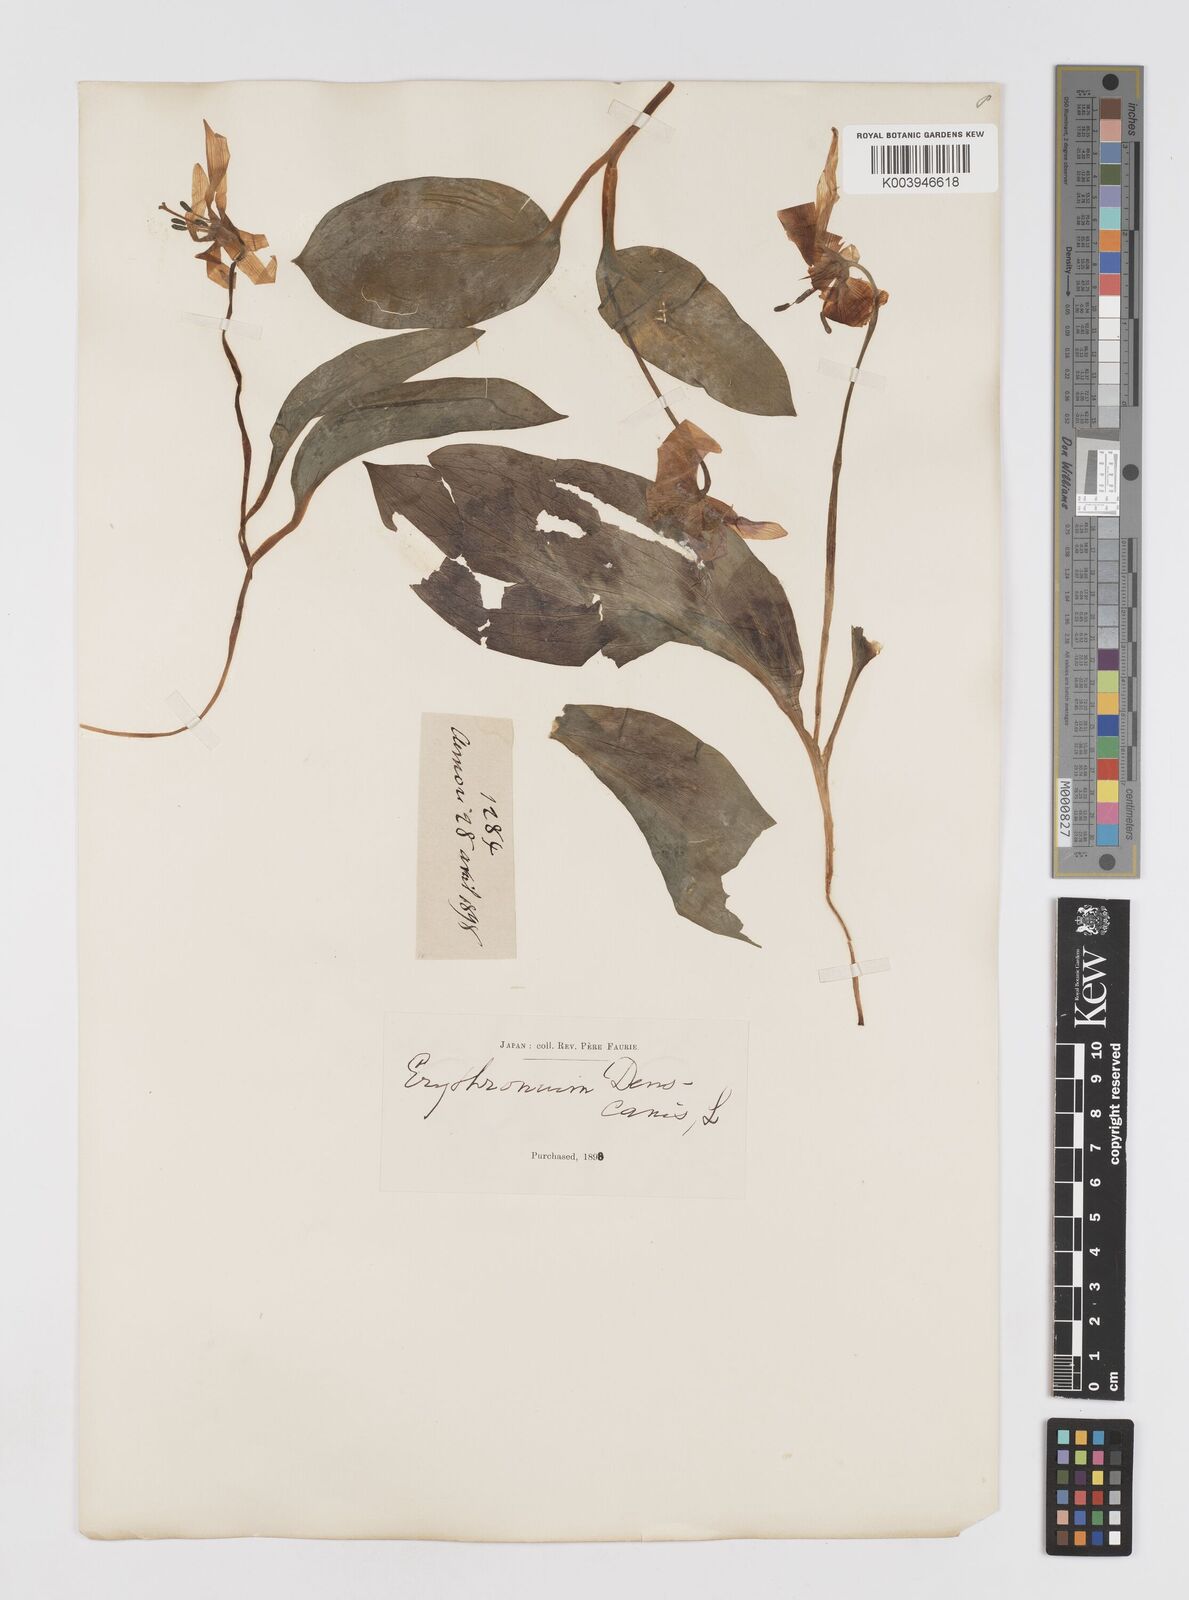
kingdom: Plantae
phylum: Tracheophyta
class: Liliopsida
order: Liliales
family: Liliaceae
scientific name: Liliaceae
